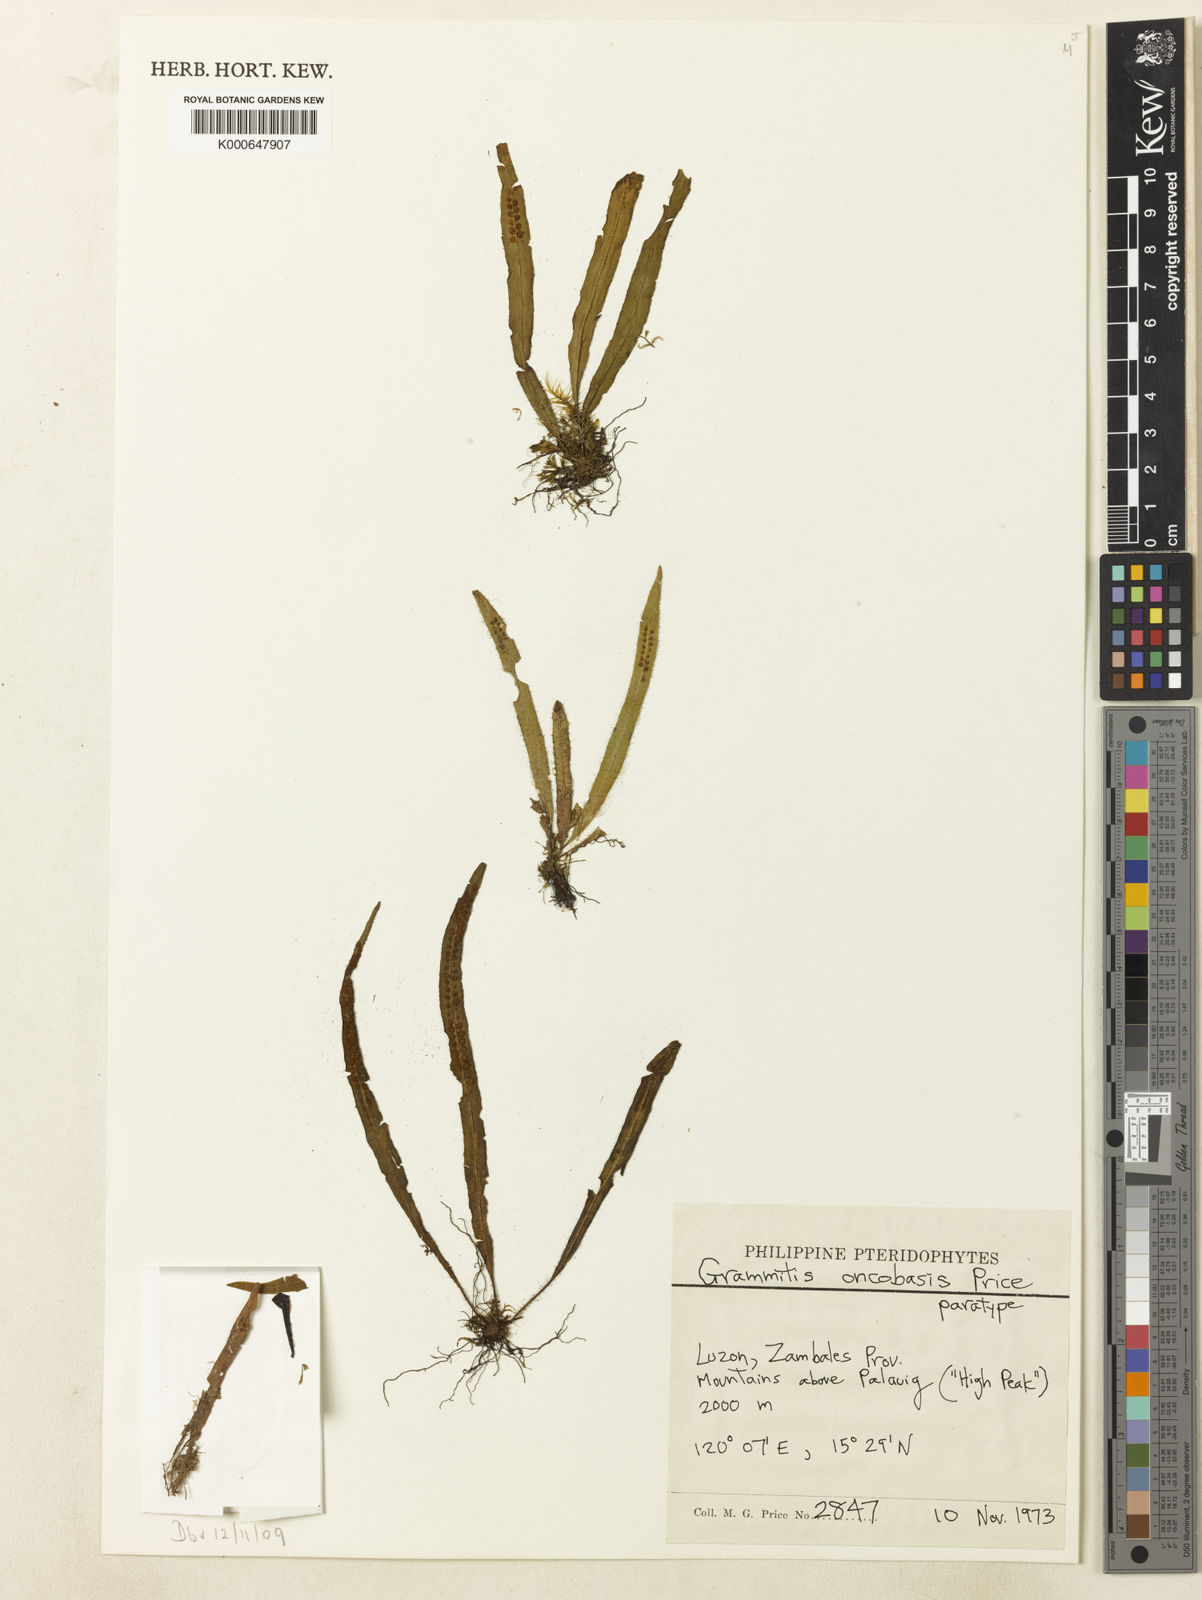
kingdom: Plantae
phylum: Tracheophyta
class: Polypodiopsida
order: Polypodiales
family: Polypodiaceae
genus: Oreogrammitis
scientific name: Oreogrammitis oncobasis
